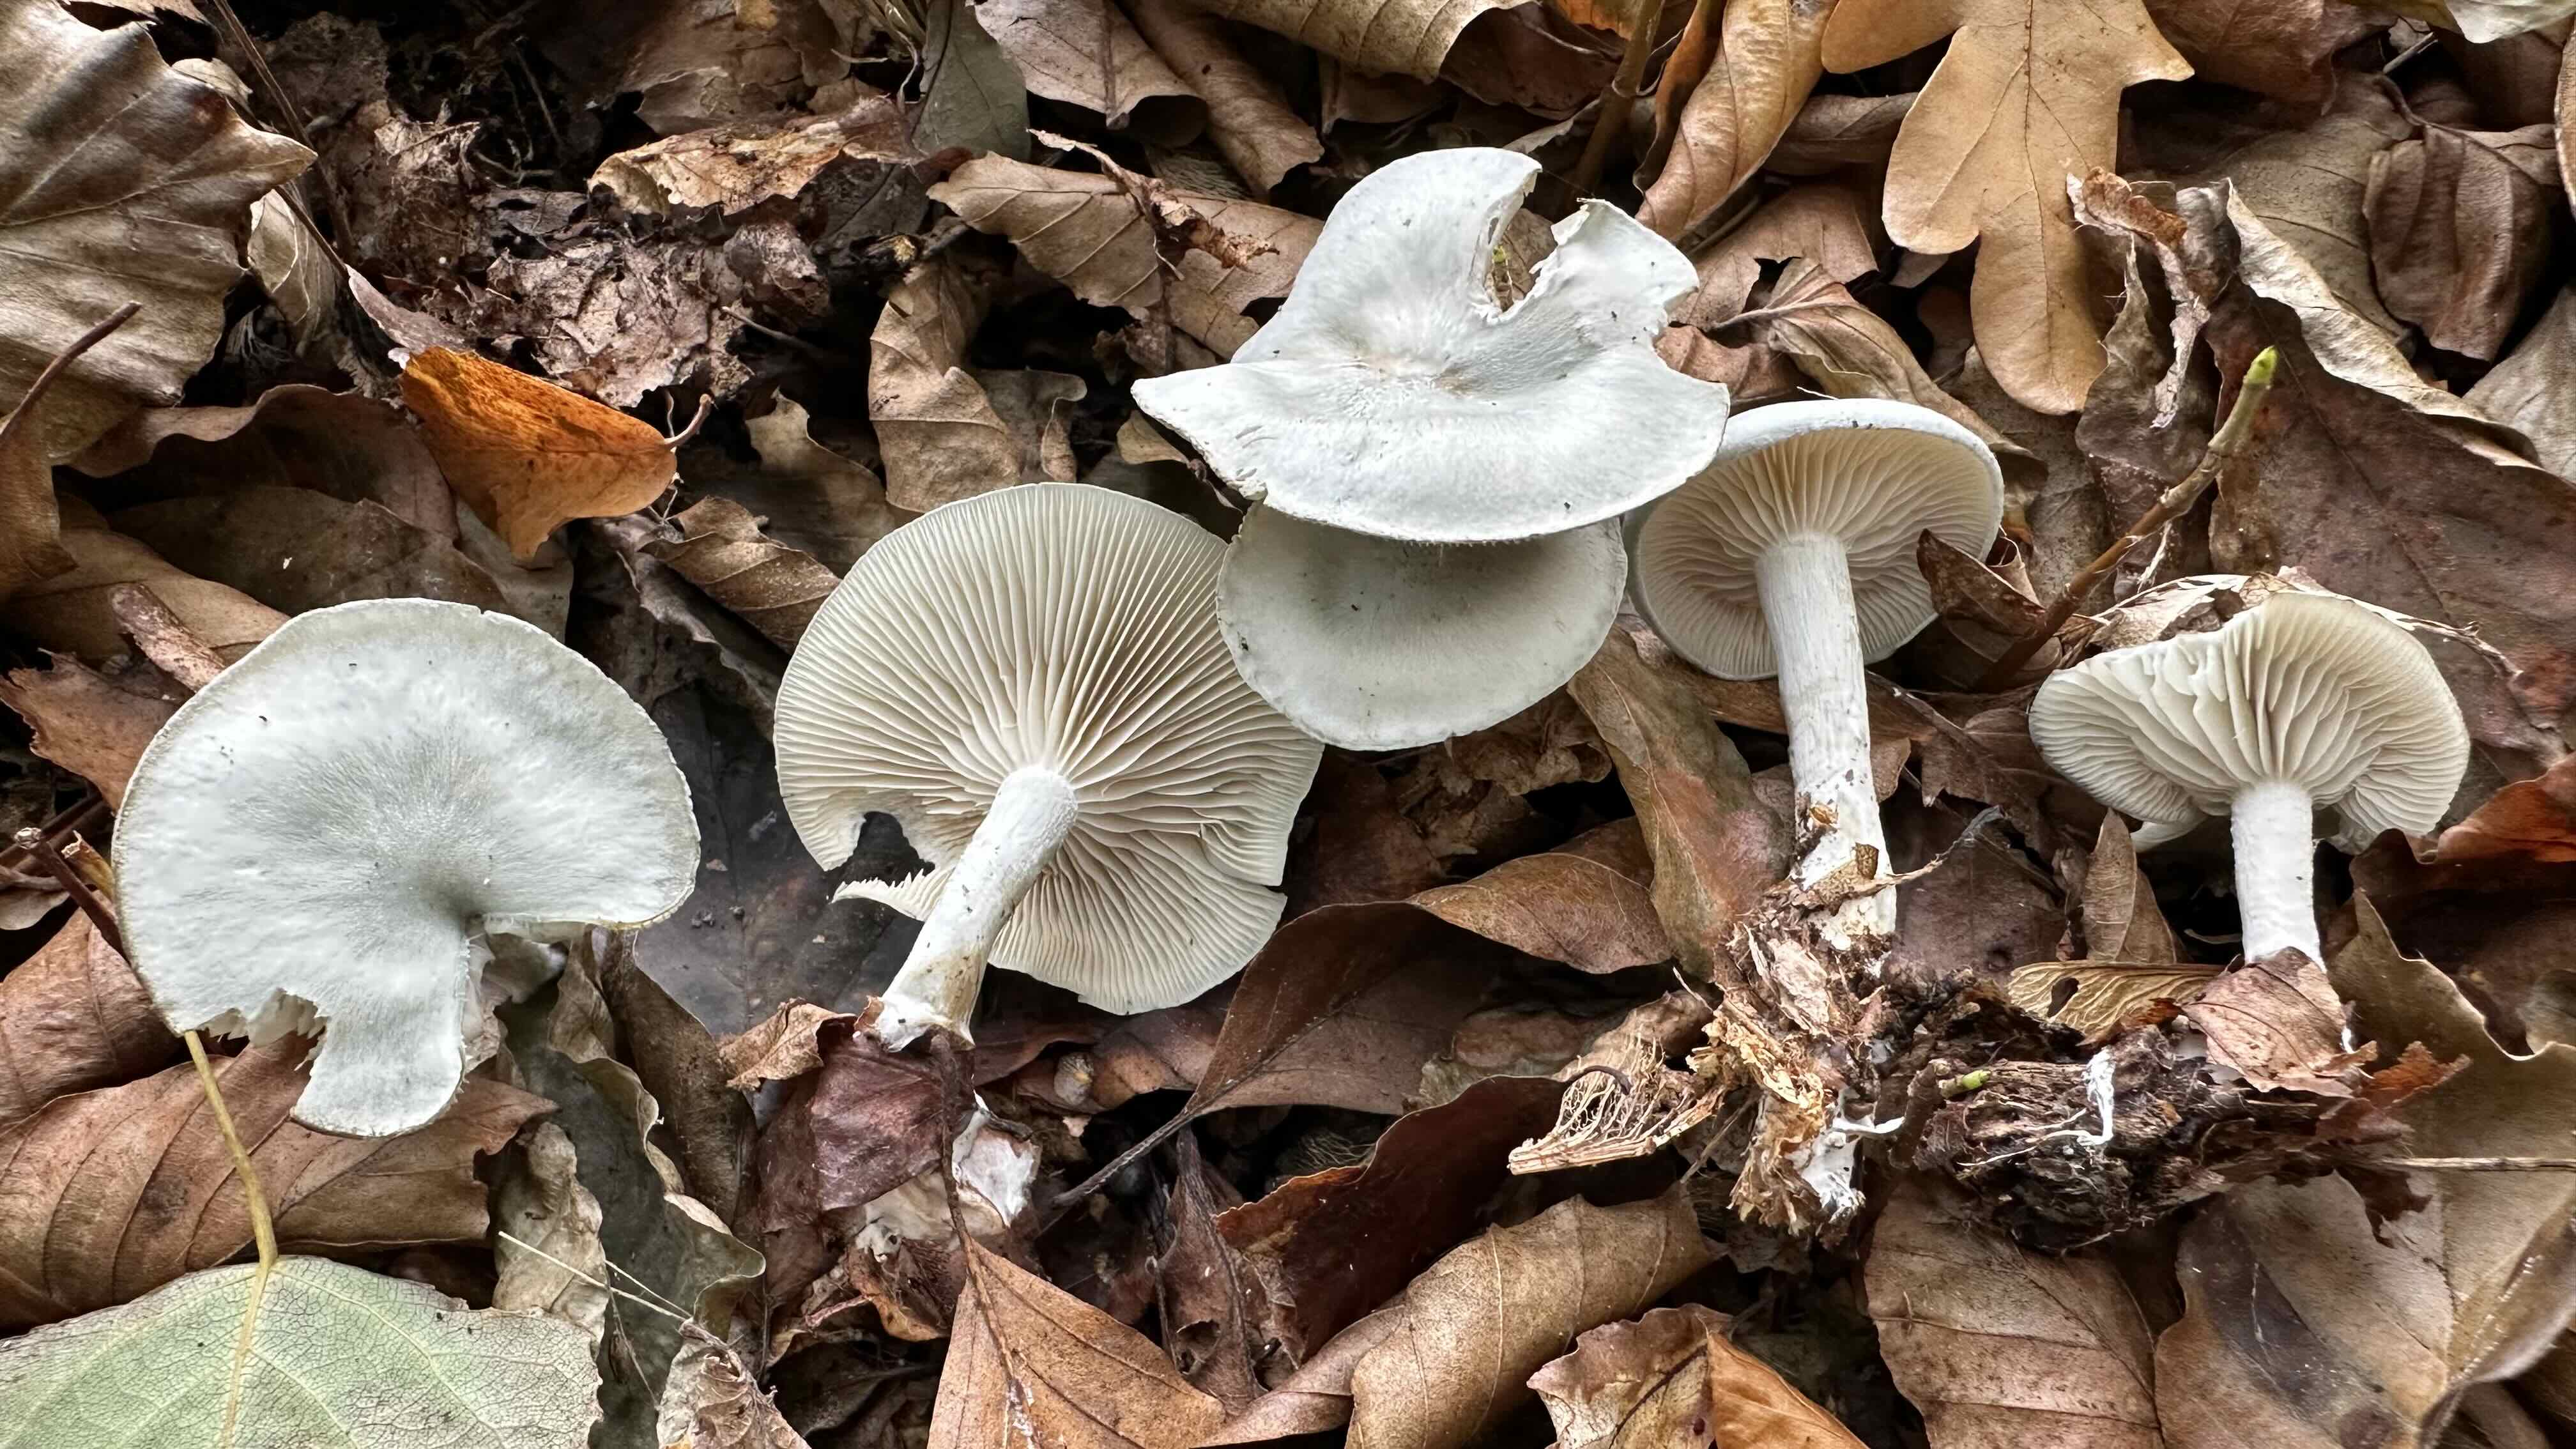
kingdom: Fungi
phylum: Basidiomycota
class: Agaricomycetes
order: Agaricales
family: Tricholomataceae
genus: Clitocybe
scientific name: Clitocybe odora
